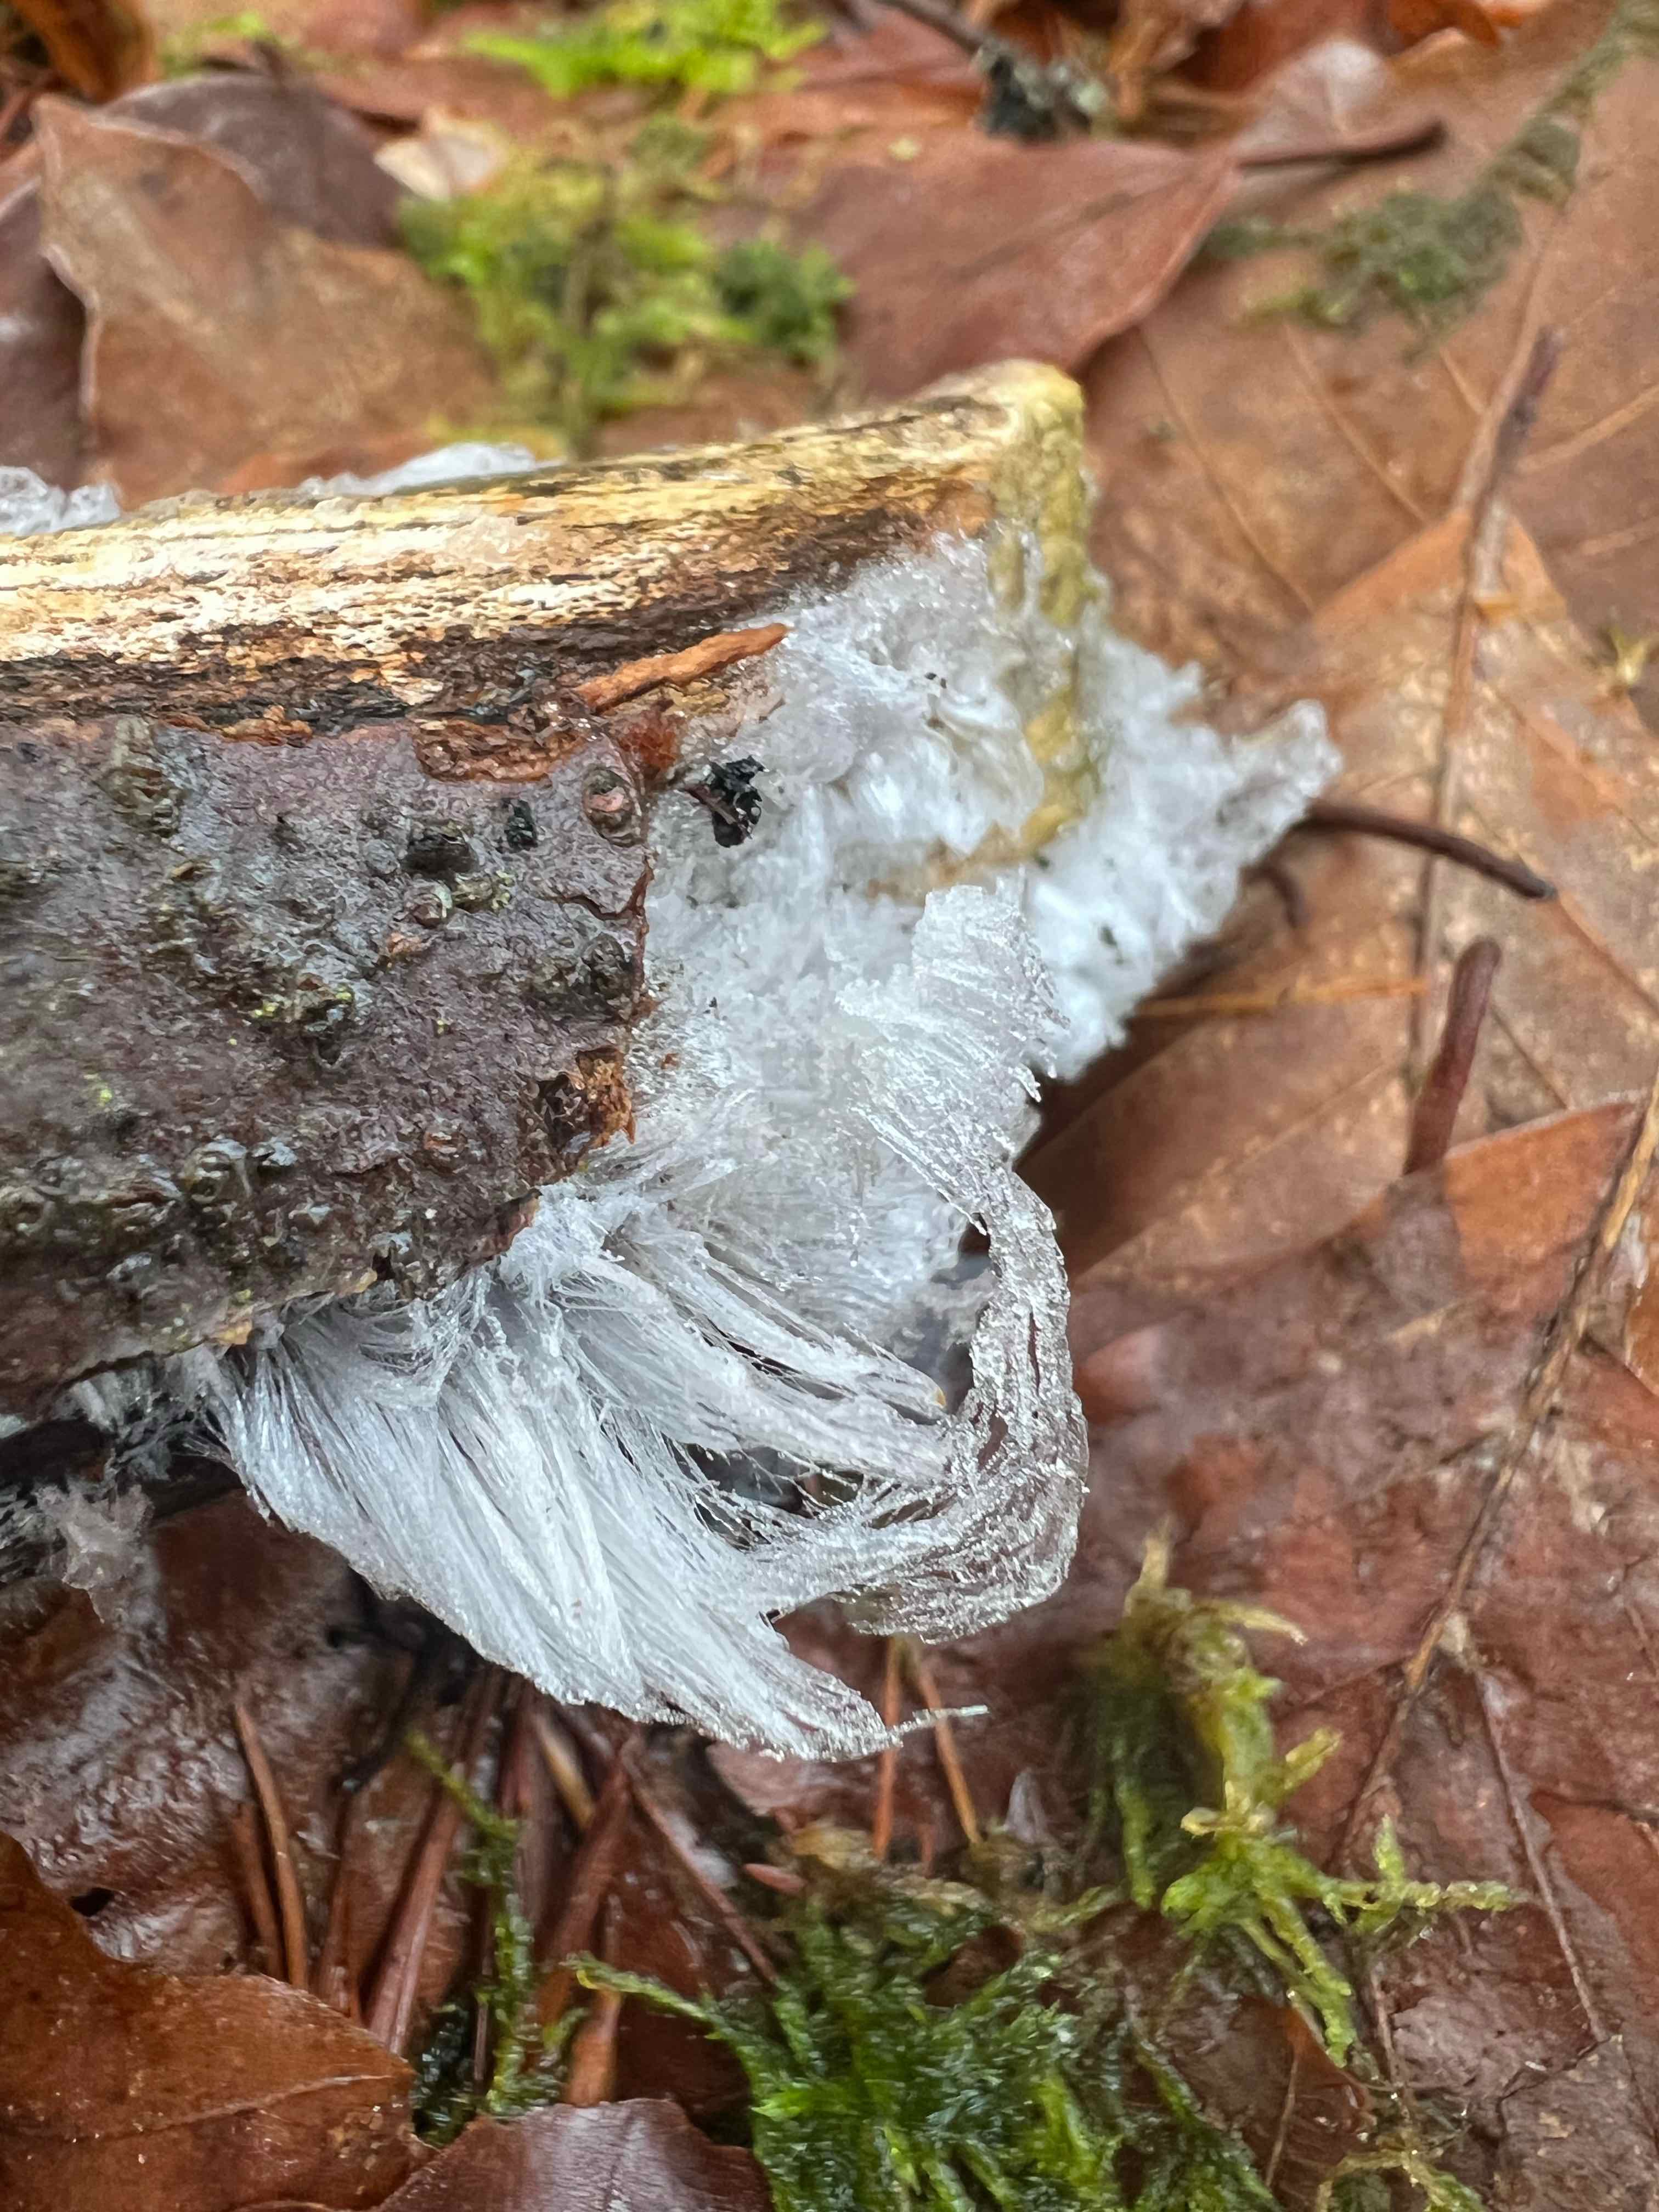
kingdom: Fungi
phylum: Basidiomycota
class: Tremellomycetes
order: Tremellales
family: Exidiaceae
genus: Exidiopsis
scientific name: Exidiopsis effusa
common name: smuk bævrehinde
